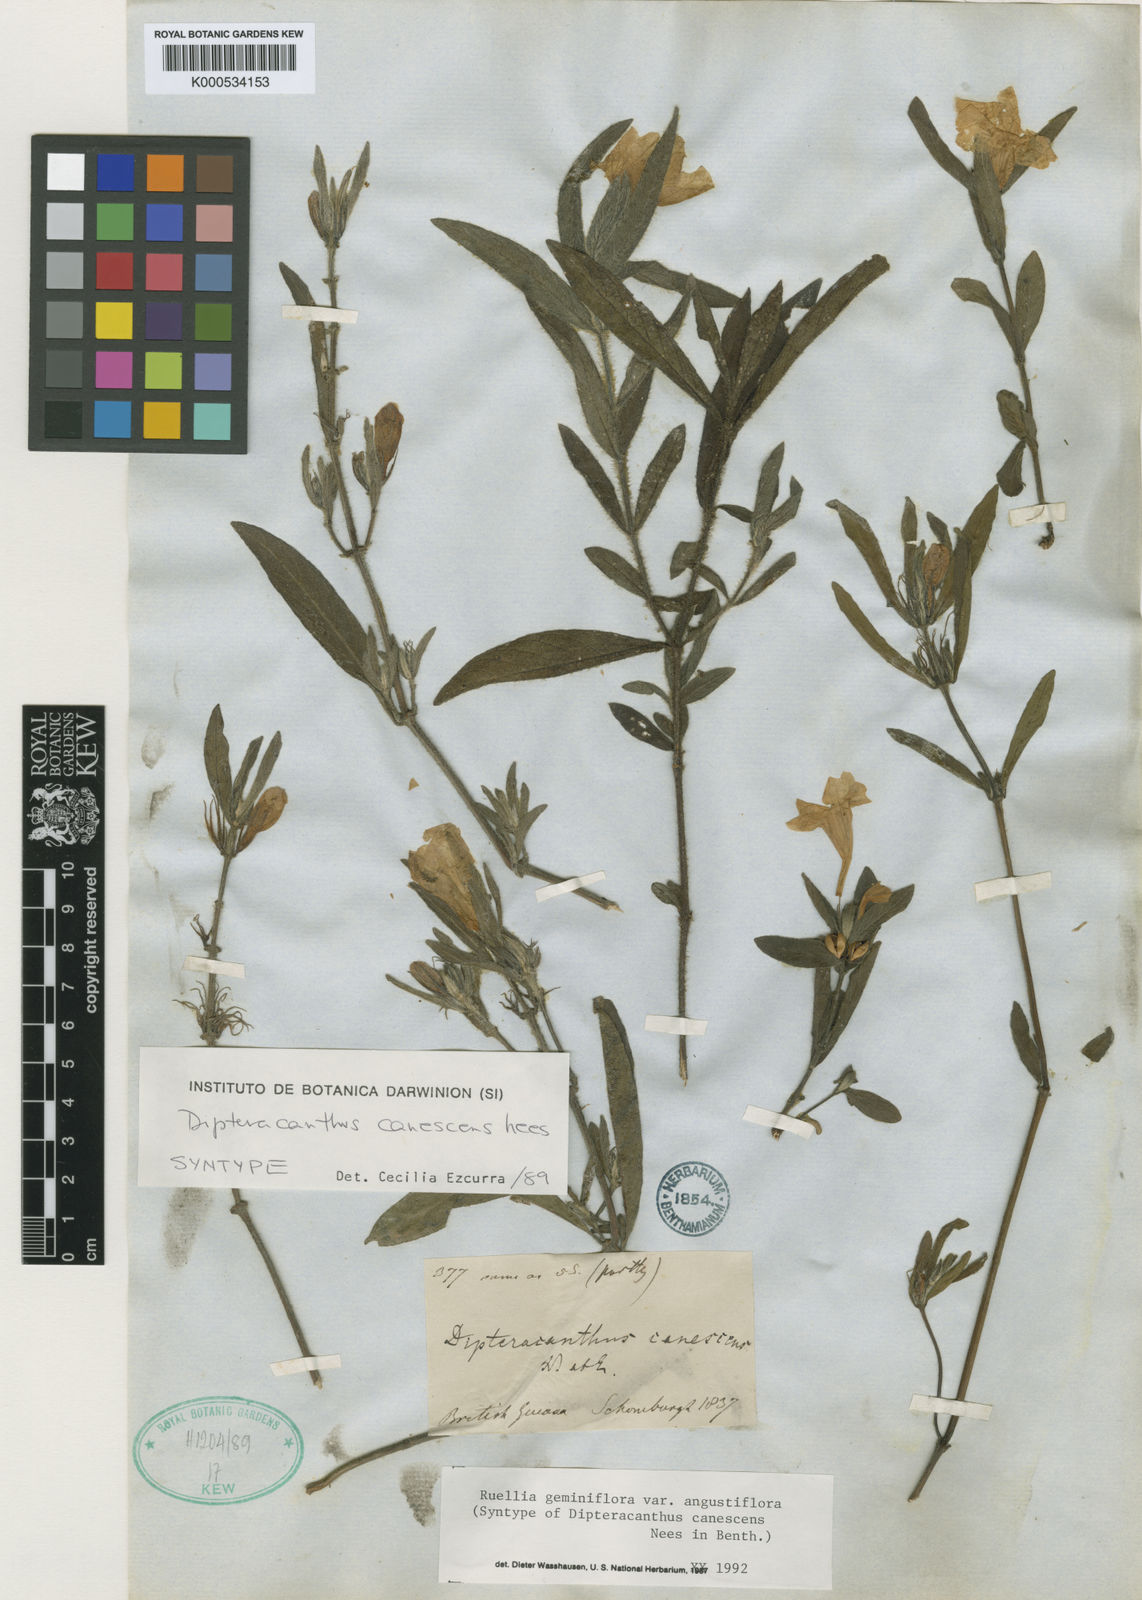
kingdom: Plantae
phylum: Tracheophyta
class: Magnoliopsida
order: Lamiales
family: Acanthaceae
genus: Ruellia
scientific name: Ruellia geminiflora
